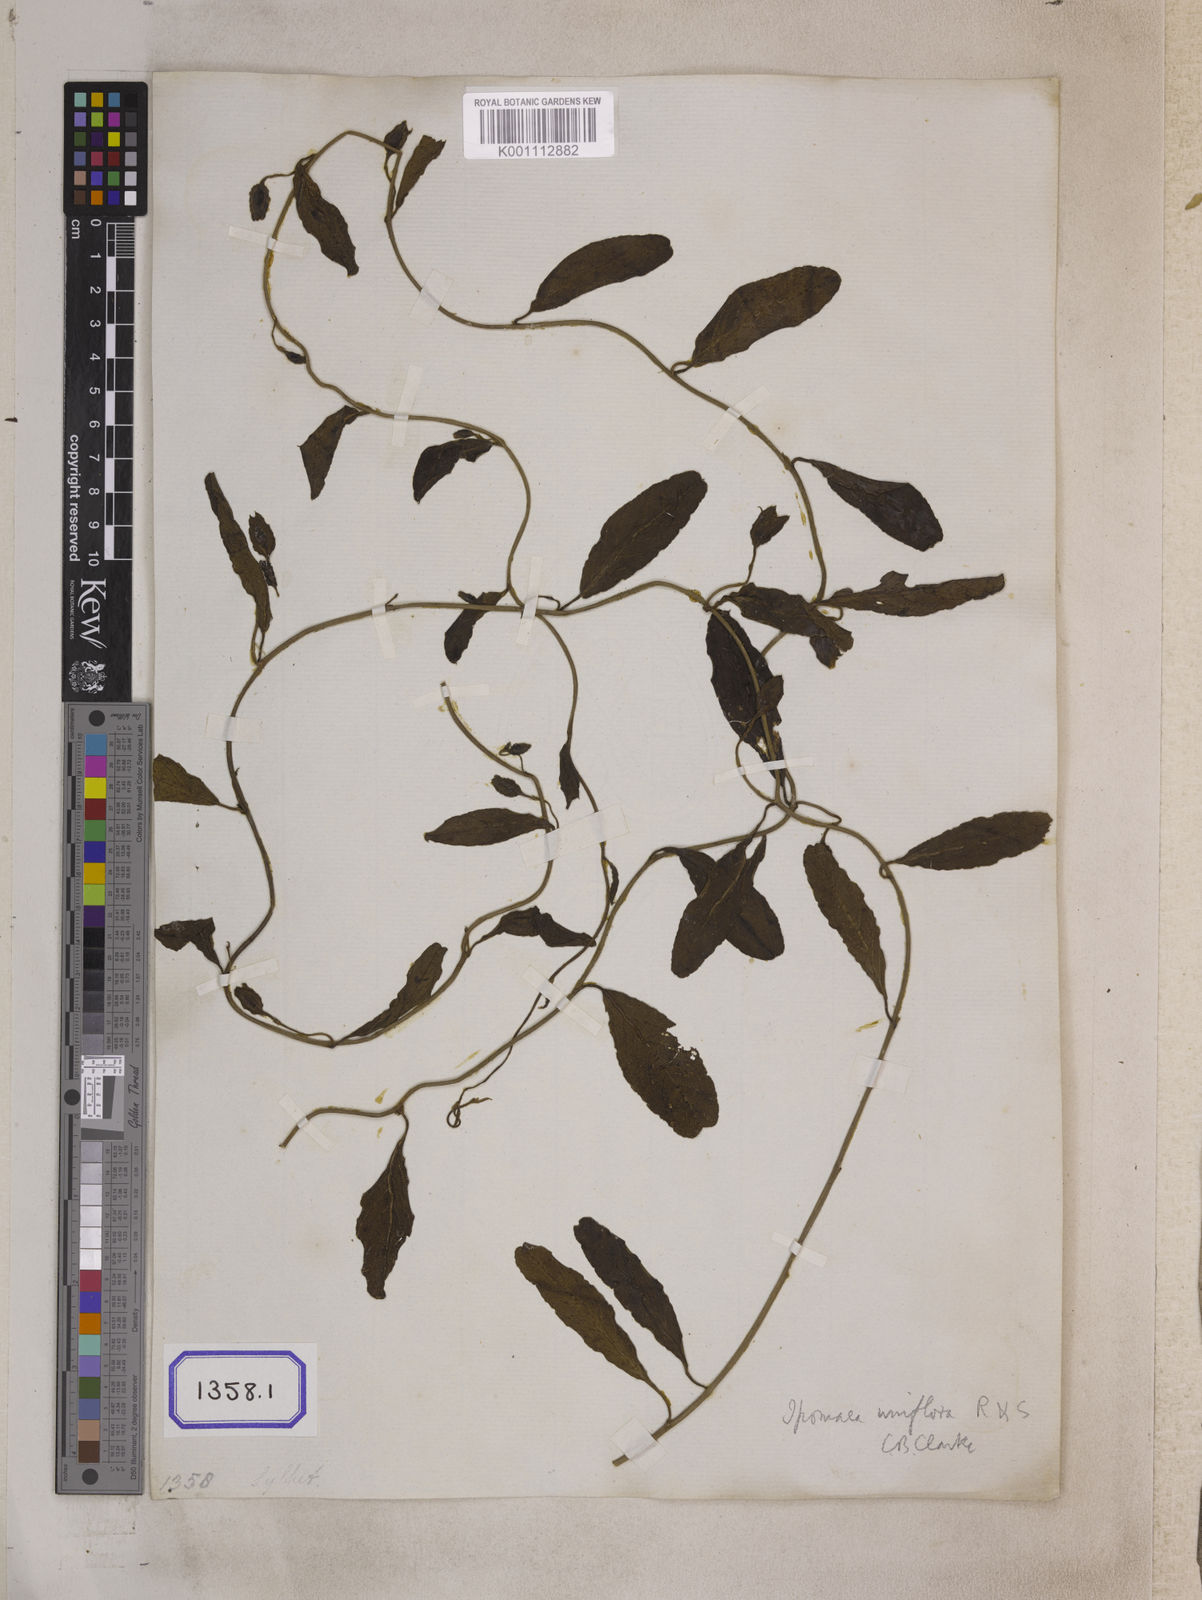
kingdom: Plantae
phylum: Tracheophyta
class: Magnoliopsida
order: Solanales
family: Convolvulaceae
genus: Aniseia
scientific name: Aniseia martinicensis
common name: Kulayadambu
